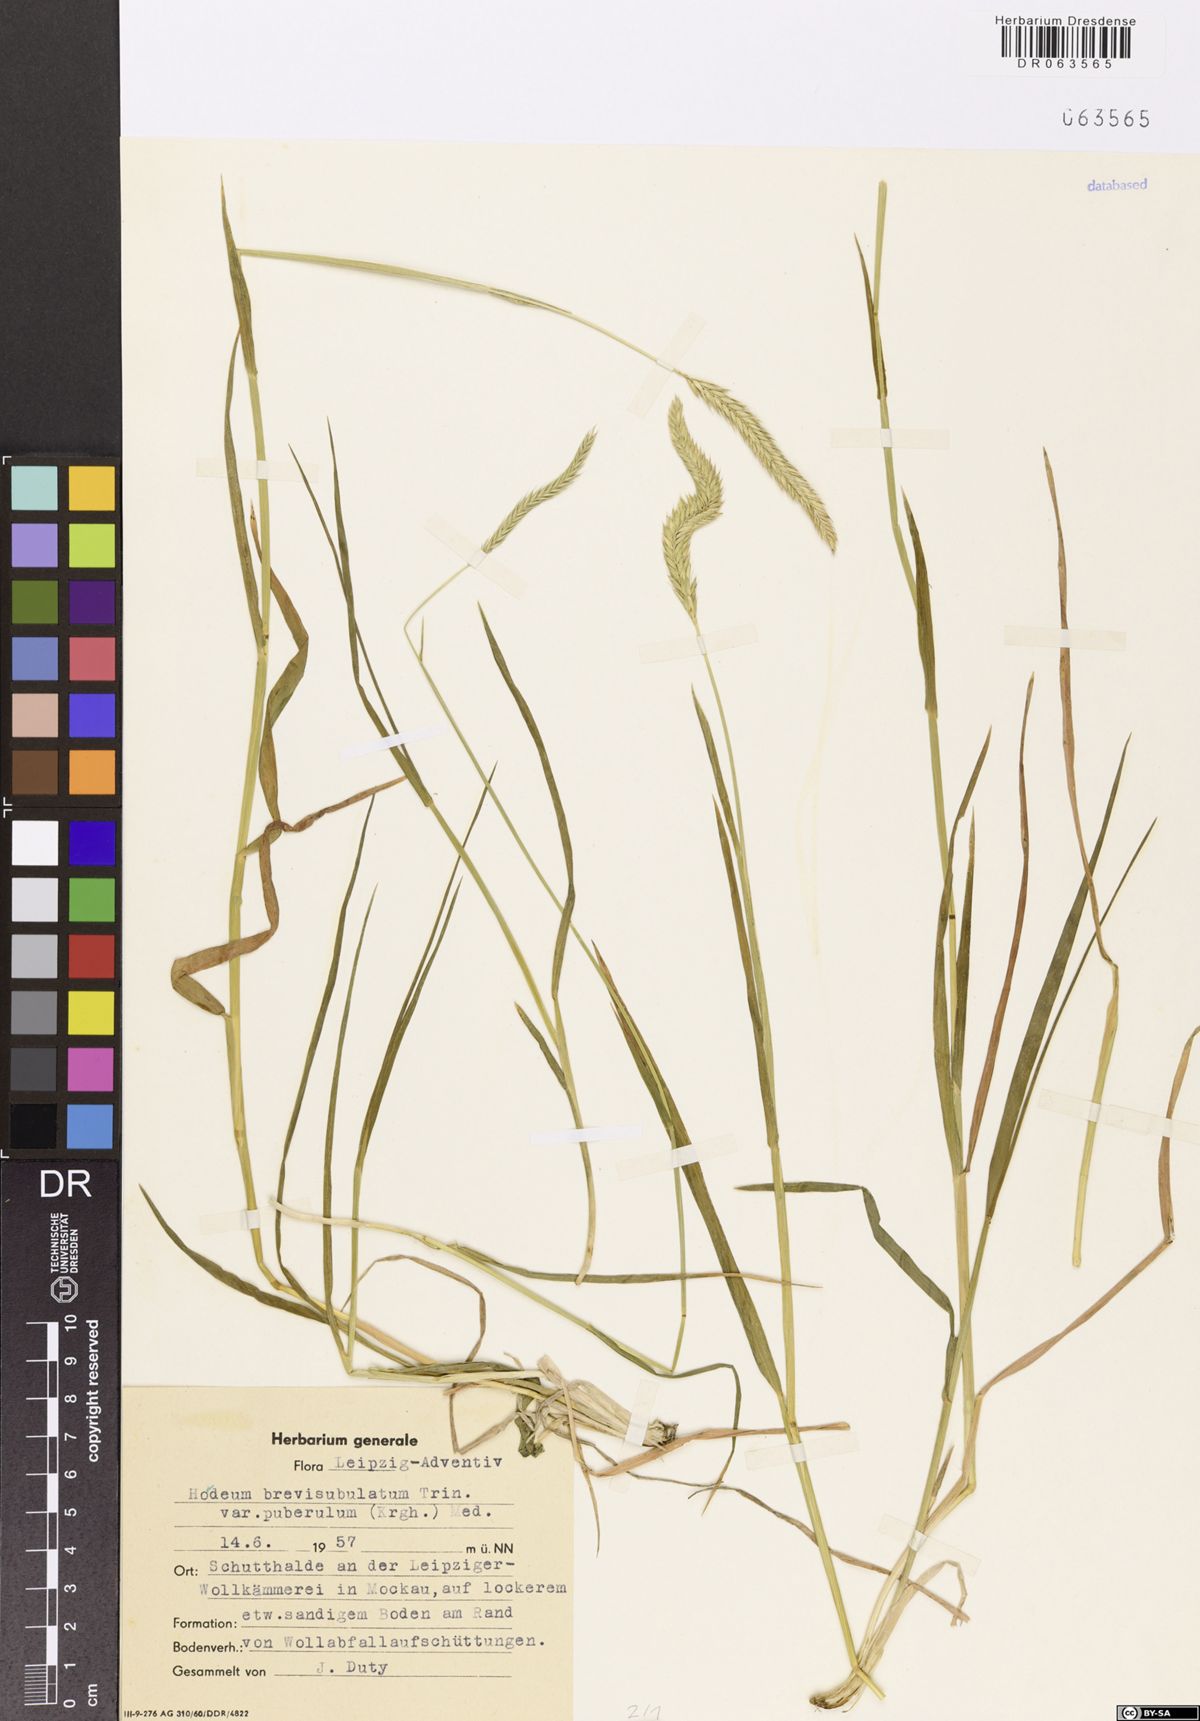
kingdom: Plantae
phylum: Tracheophyta
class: Liliopsida
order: Poales
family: Poaceae
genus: Hordeum
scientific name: Hordeum brevisubulatum
